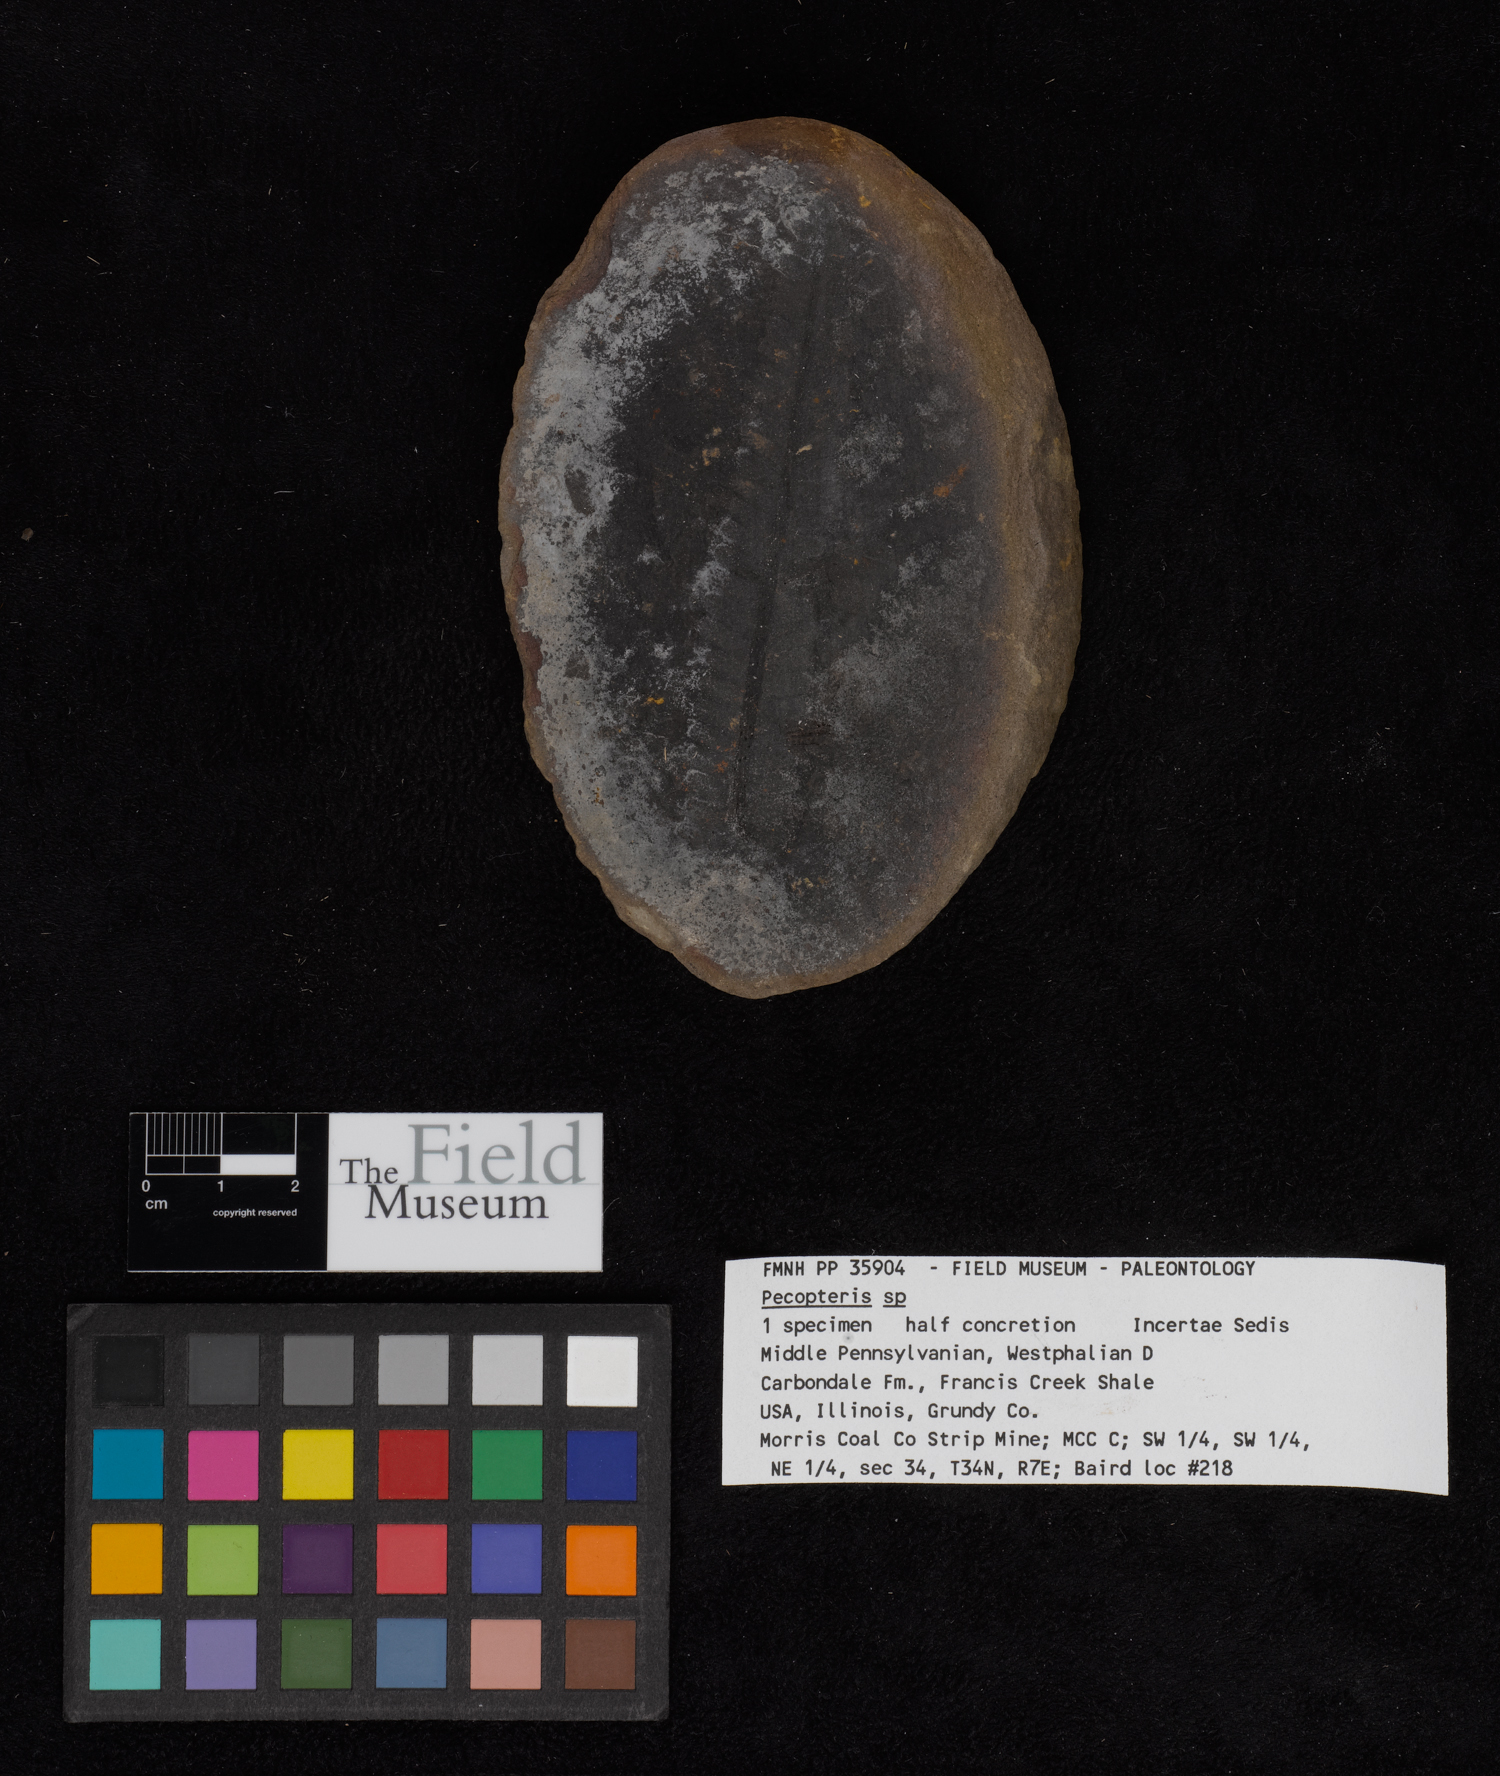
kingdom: Plantae
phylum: Tracheophyta
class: Polypodiopsida
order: Marattiales
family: Asterothecaceae
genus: Pecopteris
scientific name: Pecopteris
